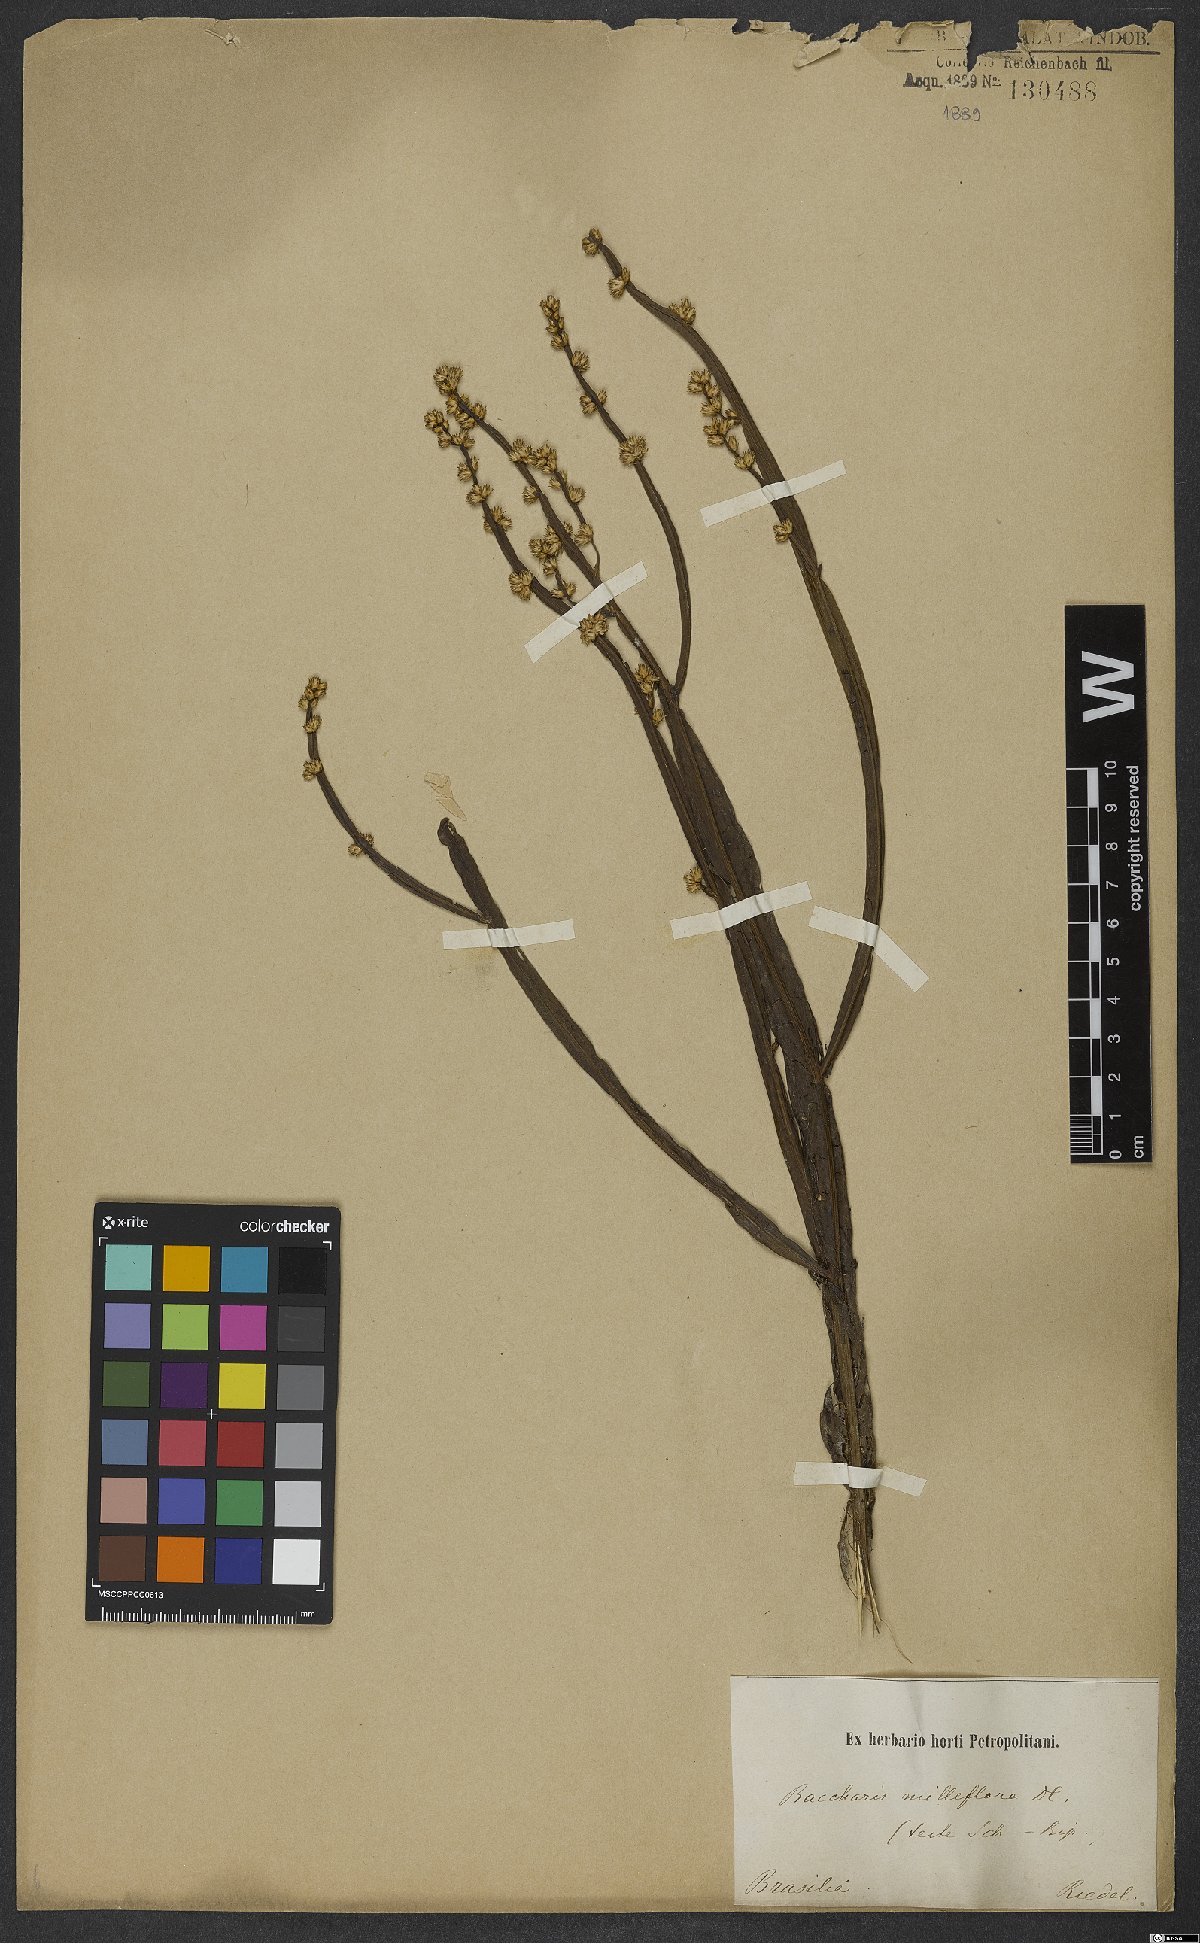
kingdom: Plantae
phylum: Tracheophyta
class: Magnoliopsida
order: Asterales
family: Asteraceae
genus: Baccharis
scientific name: Baccharis milleflora
